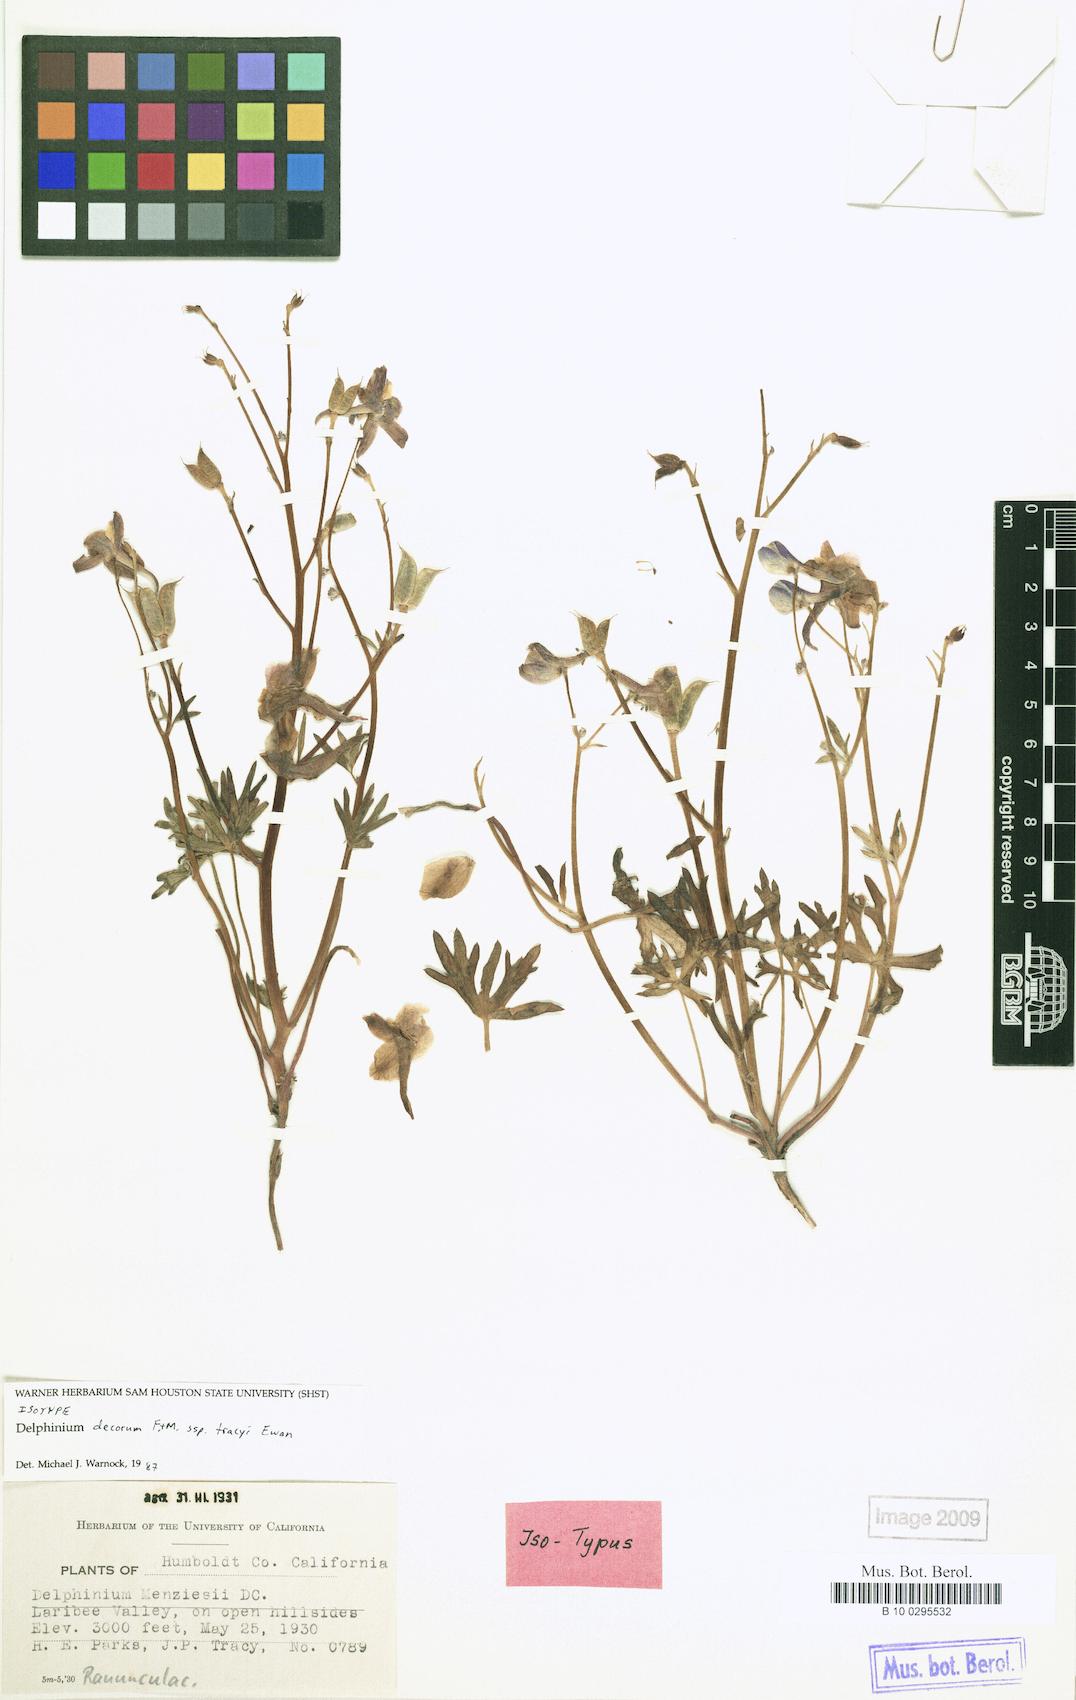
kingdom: Plantae
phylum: Tracheophyta
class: Magnoliopsida
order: Ranunculales
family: Ranunculaceae
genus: Delphinium
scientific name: Delphinium decorum
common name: Coast larkspur
